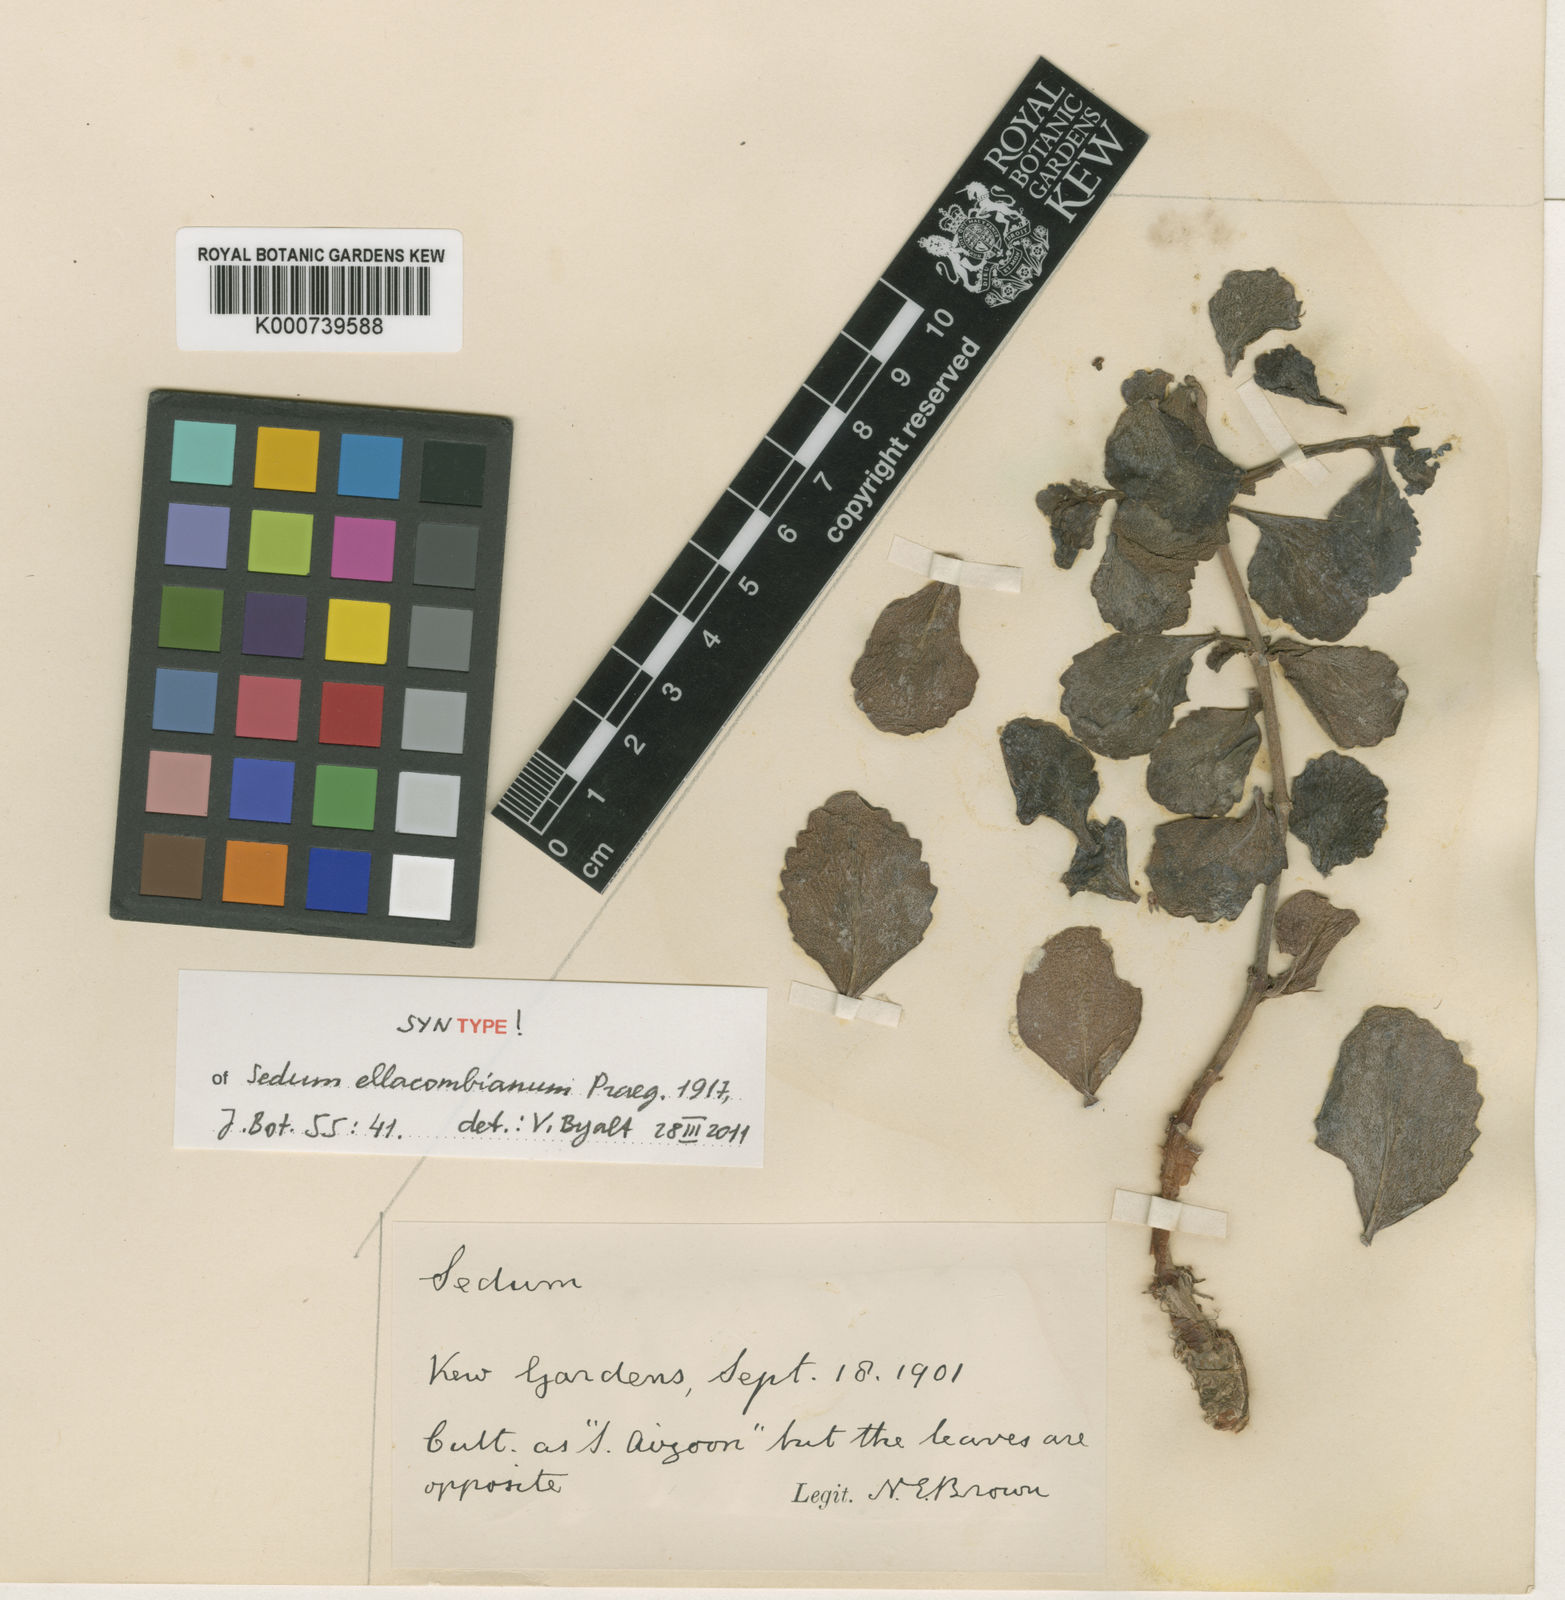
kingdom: Plantae
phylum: Tracheophyta
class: Magnoliopsida
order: Saxifragales
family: Crassulaceae
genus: Phedimus
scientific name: Phedimus ellacombeanus
